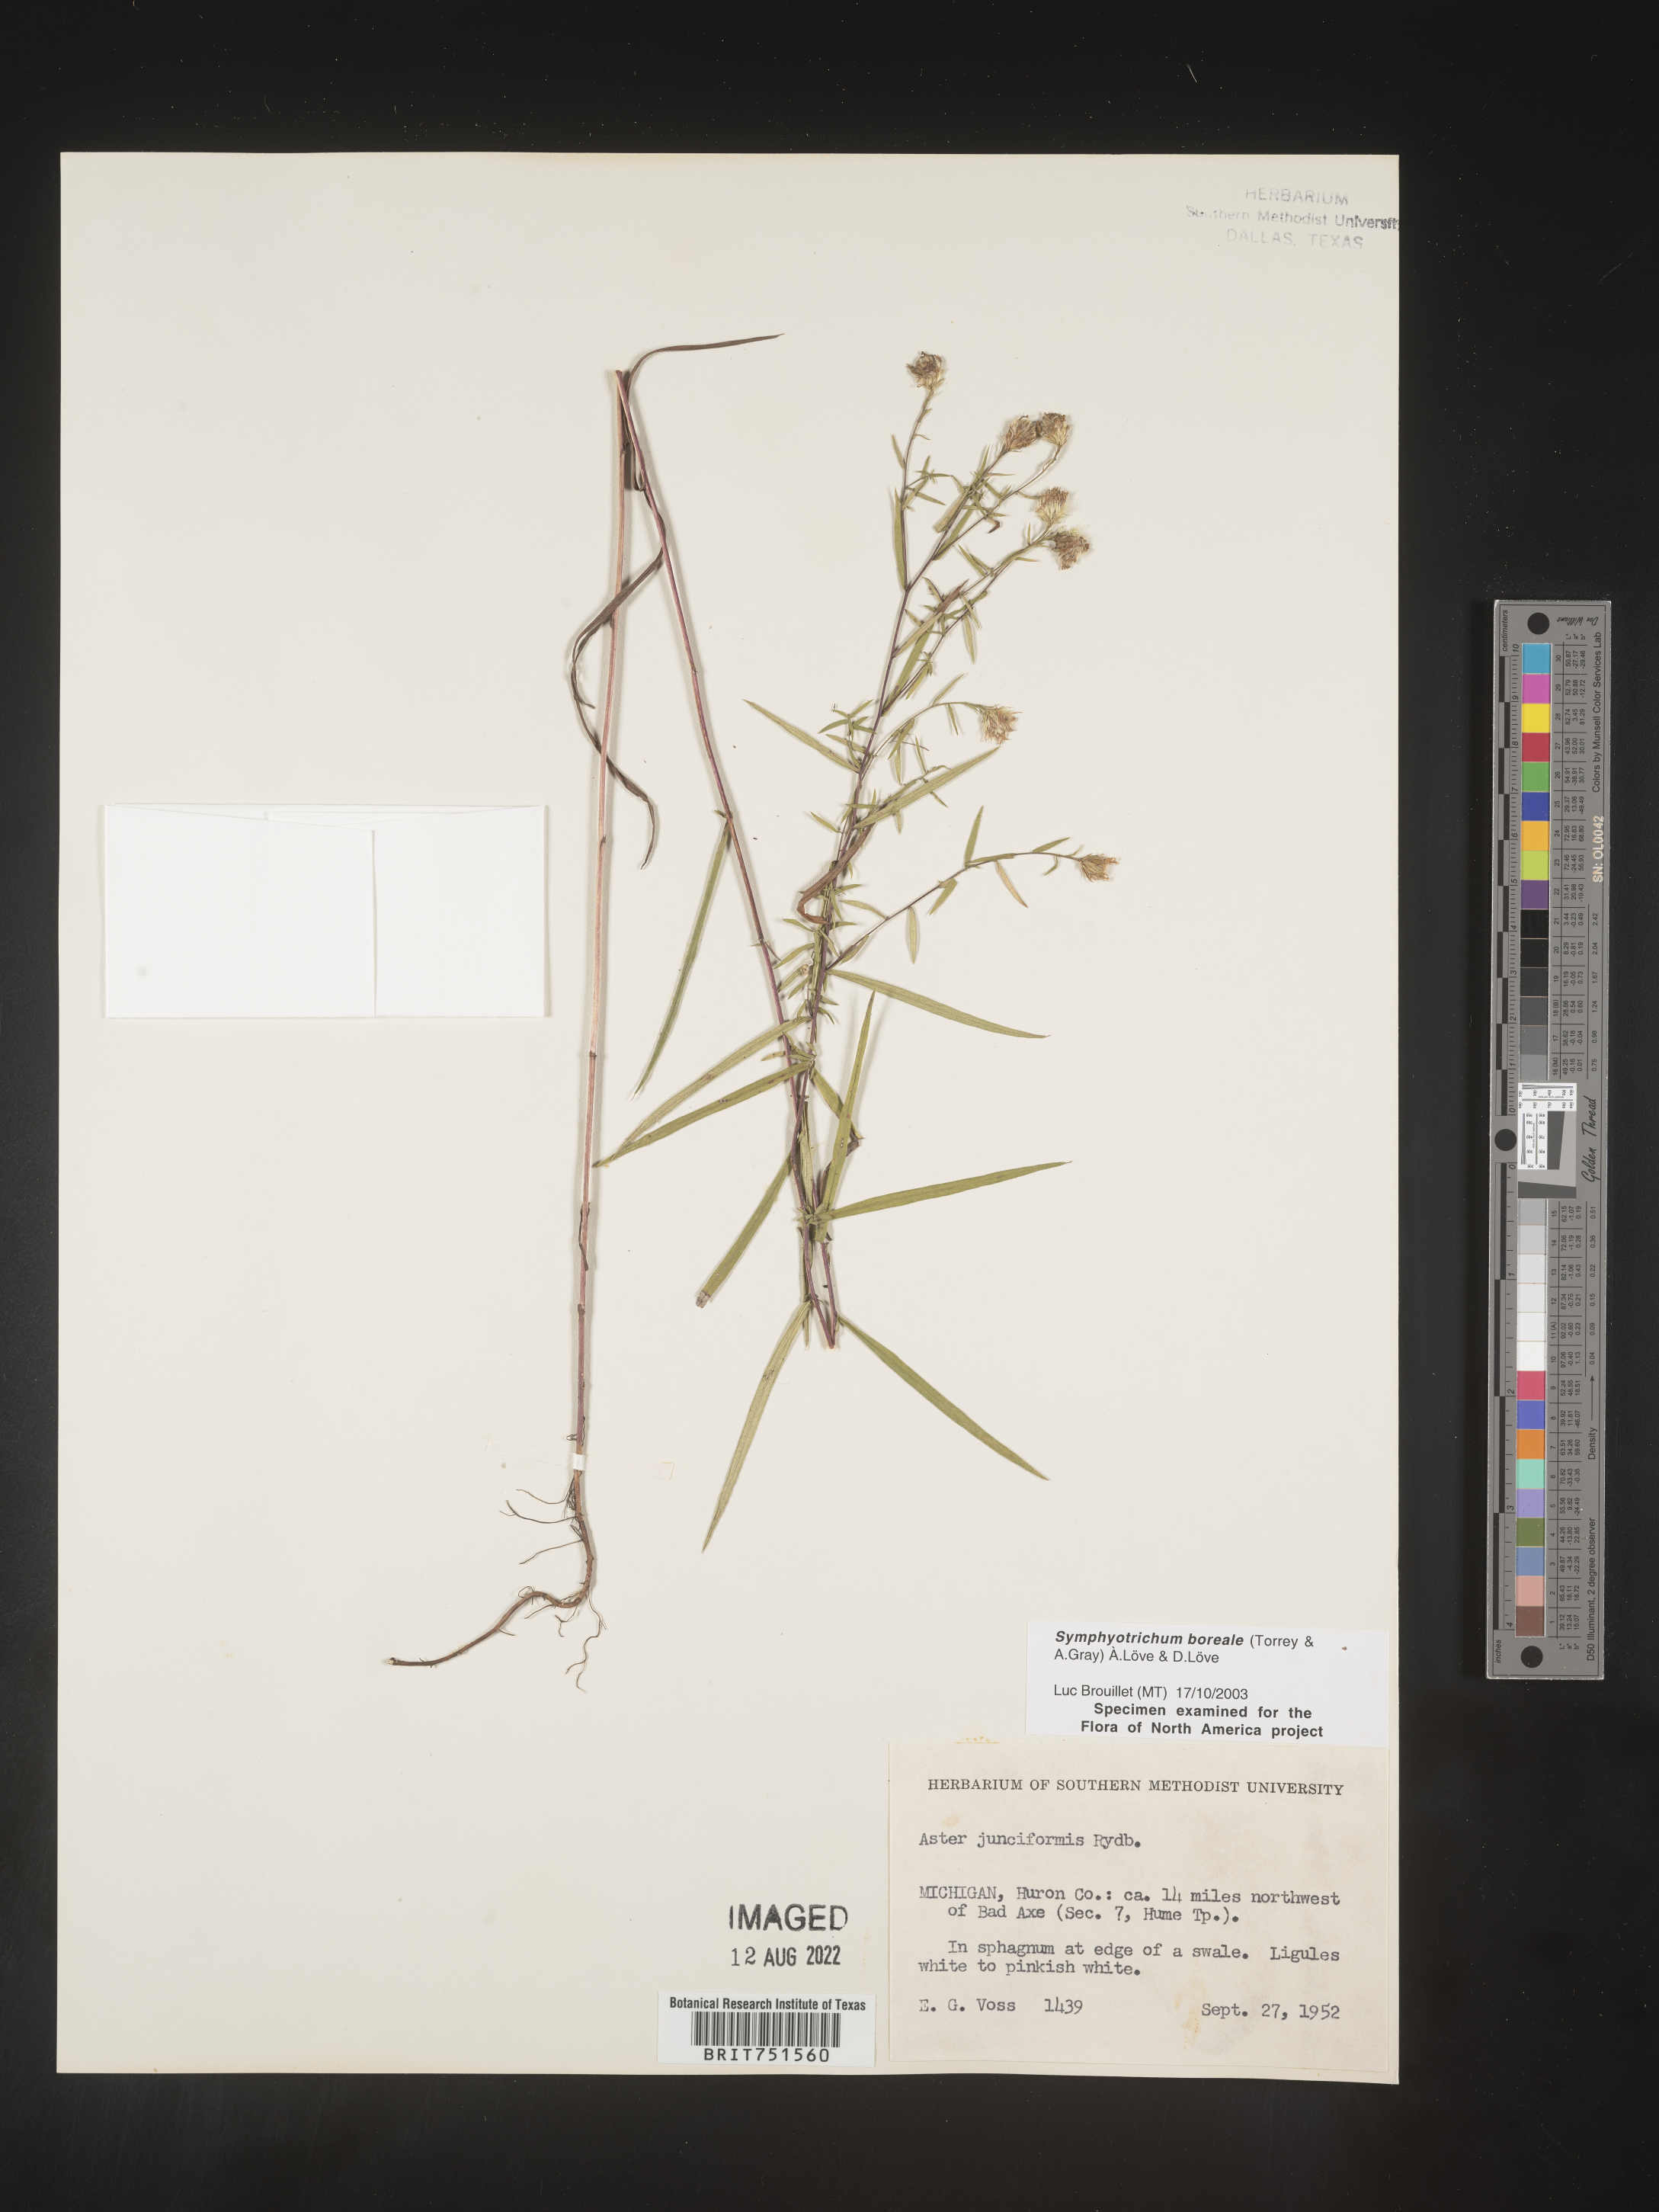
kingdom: Plantae
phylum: Tracheophyta
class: Magnoliopsida
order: Asterales
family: Asteraceae
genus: Symphyotrichum
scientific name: Symphyotrichum boreale
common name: Northern bog aster
